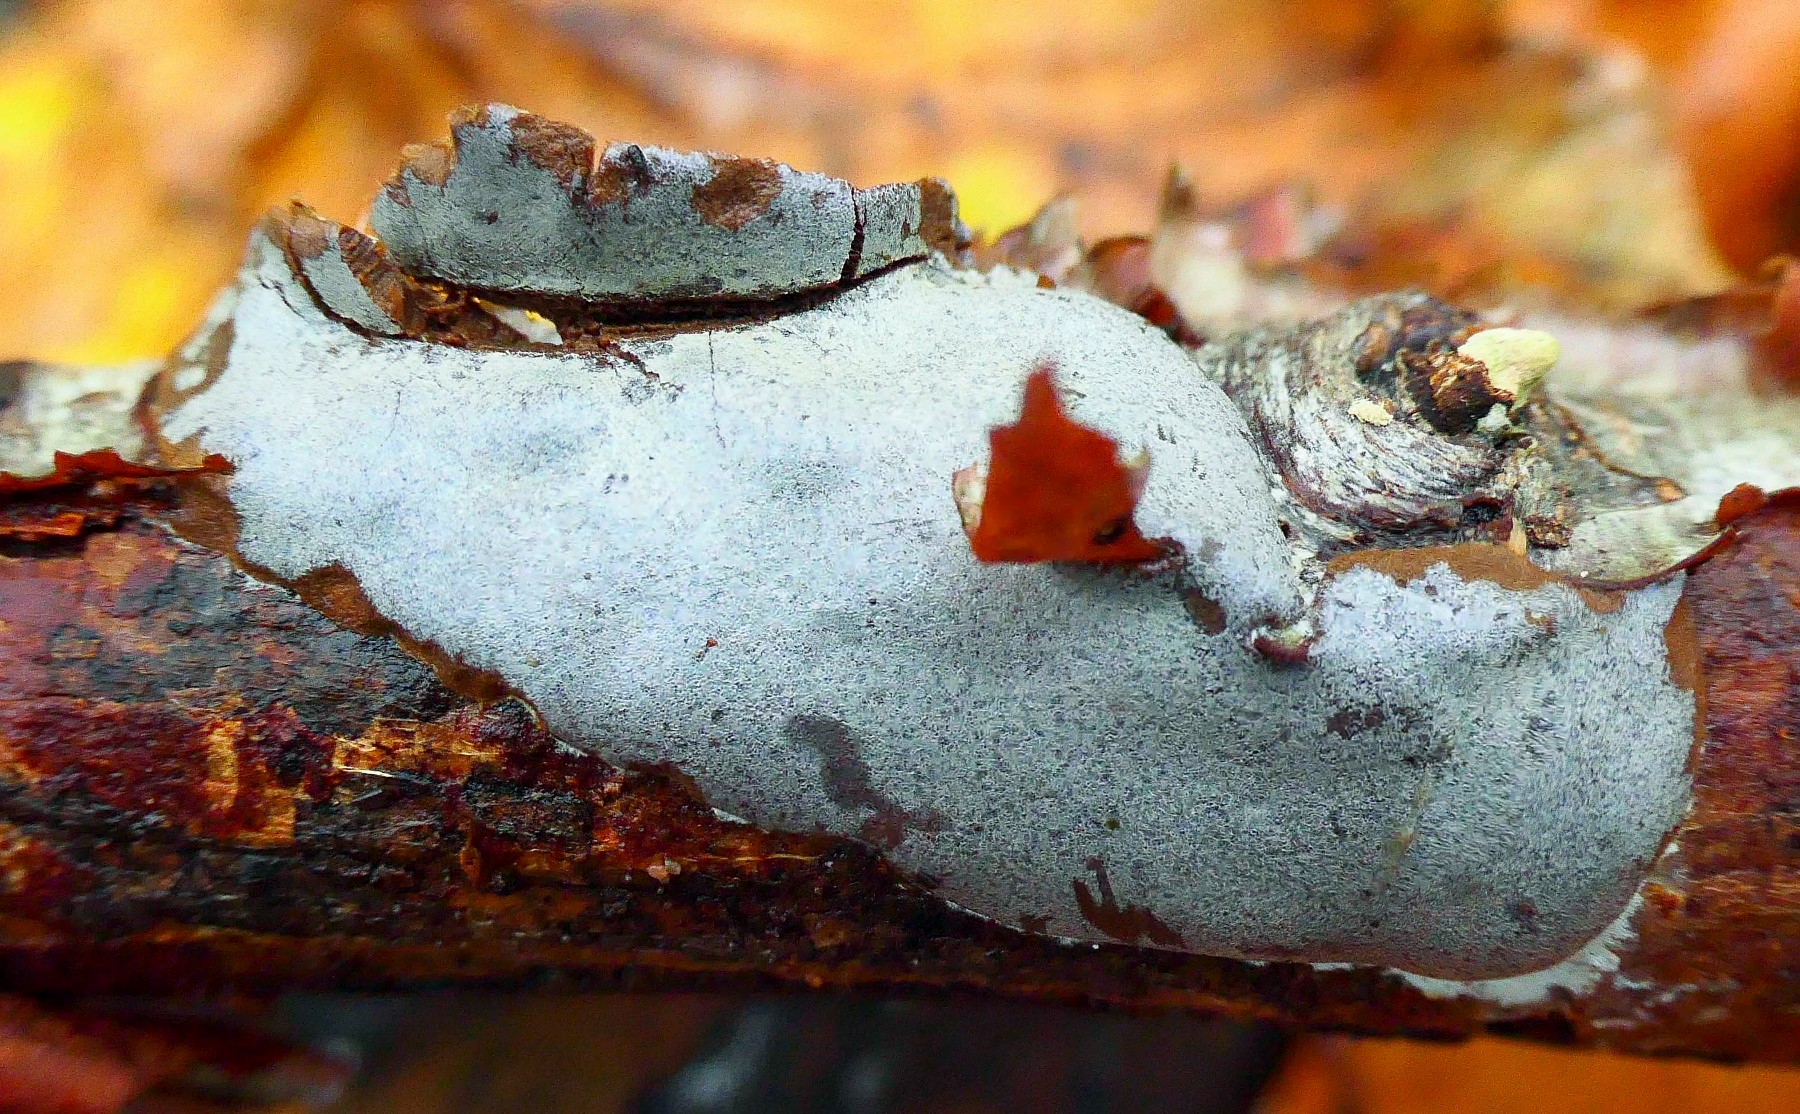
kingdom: Protozoa
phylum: Mycetozoa
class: Myxomycetes
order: Trichiales
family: Dictydiaethaliaceae
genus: Dictydiaethalium
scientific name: Dictydiaethalium plumbeum
